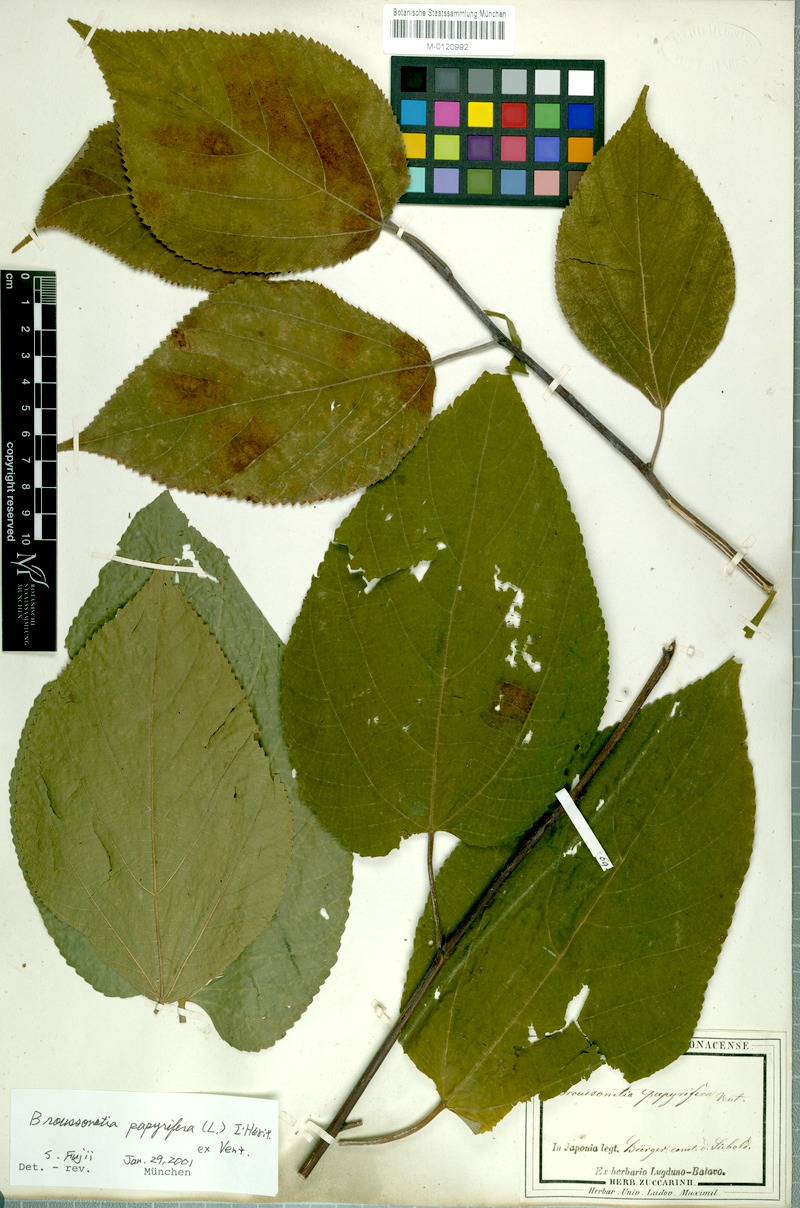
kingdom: Plantae
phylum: Tracheophyta
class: Magnoliopsida
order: Rosales
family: Moraceae
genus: Broussonetia
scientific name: Broussonetia papyrifera
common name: Paper mulberry
